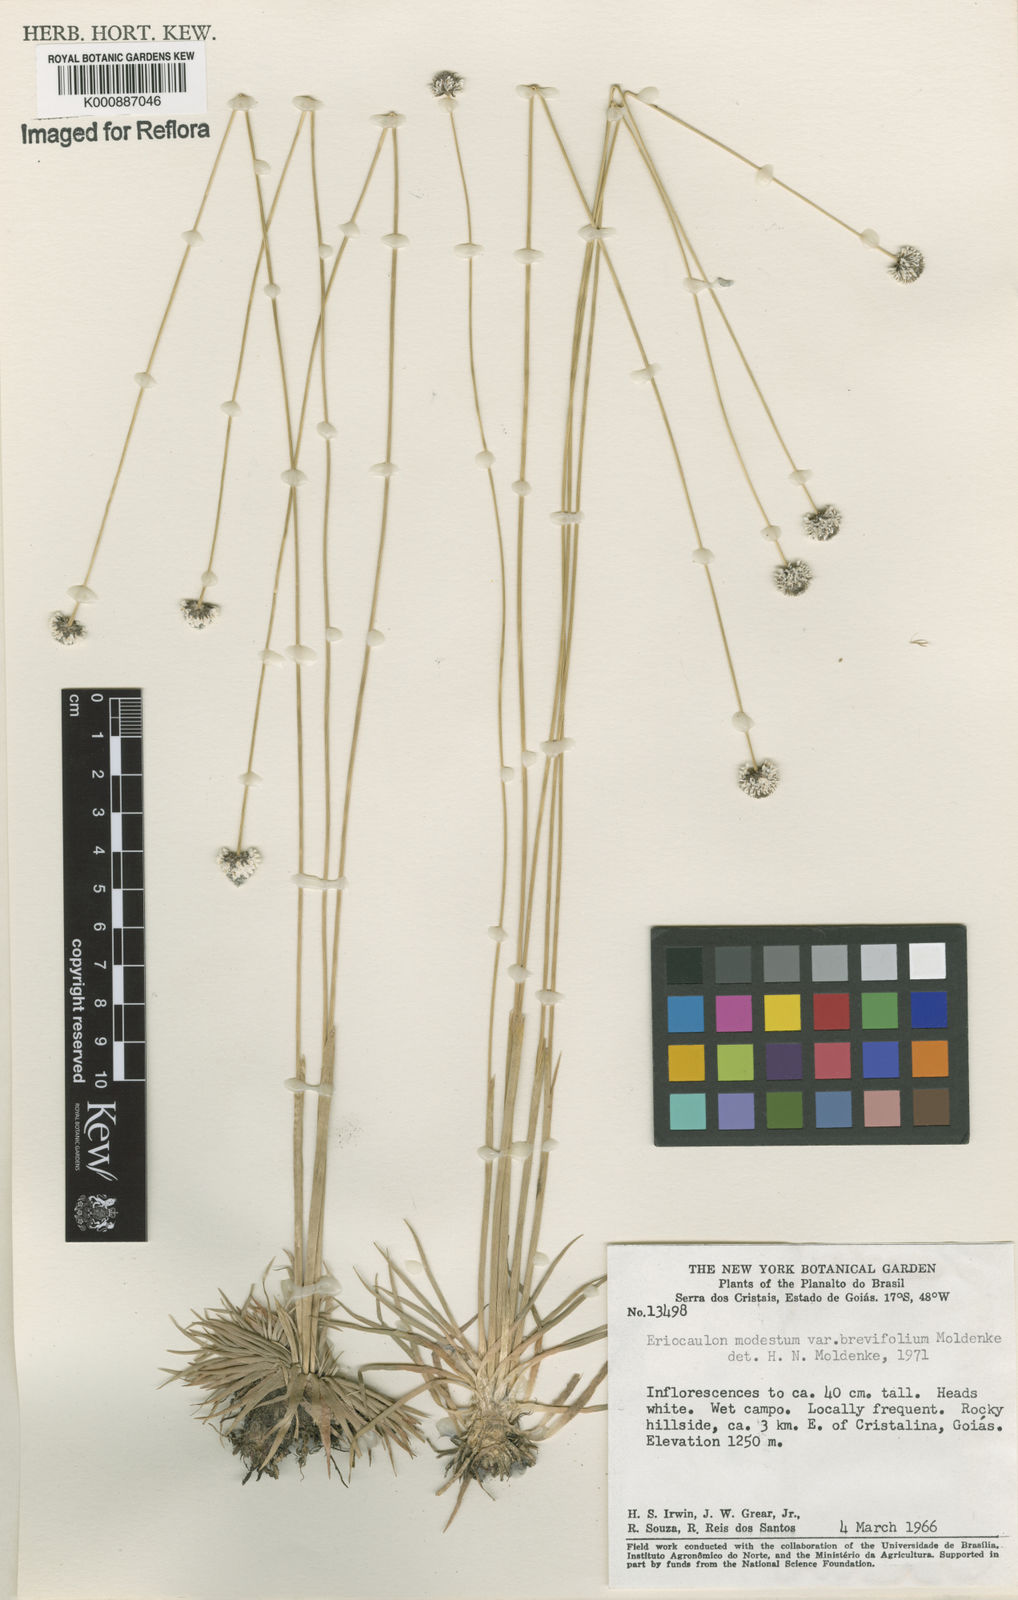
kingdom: Plantae
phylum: Tracheophyta
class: Liliopsida
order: Poales
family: Eriocaulaceae
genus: Eriocaulon
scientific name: Eriocaulon candango
